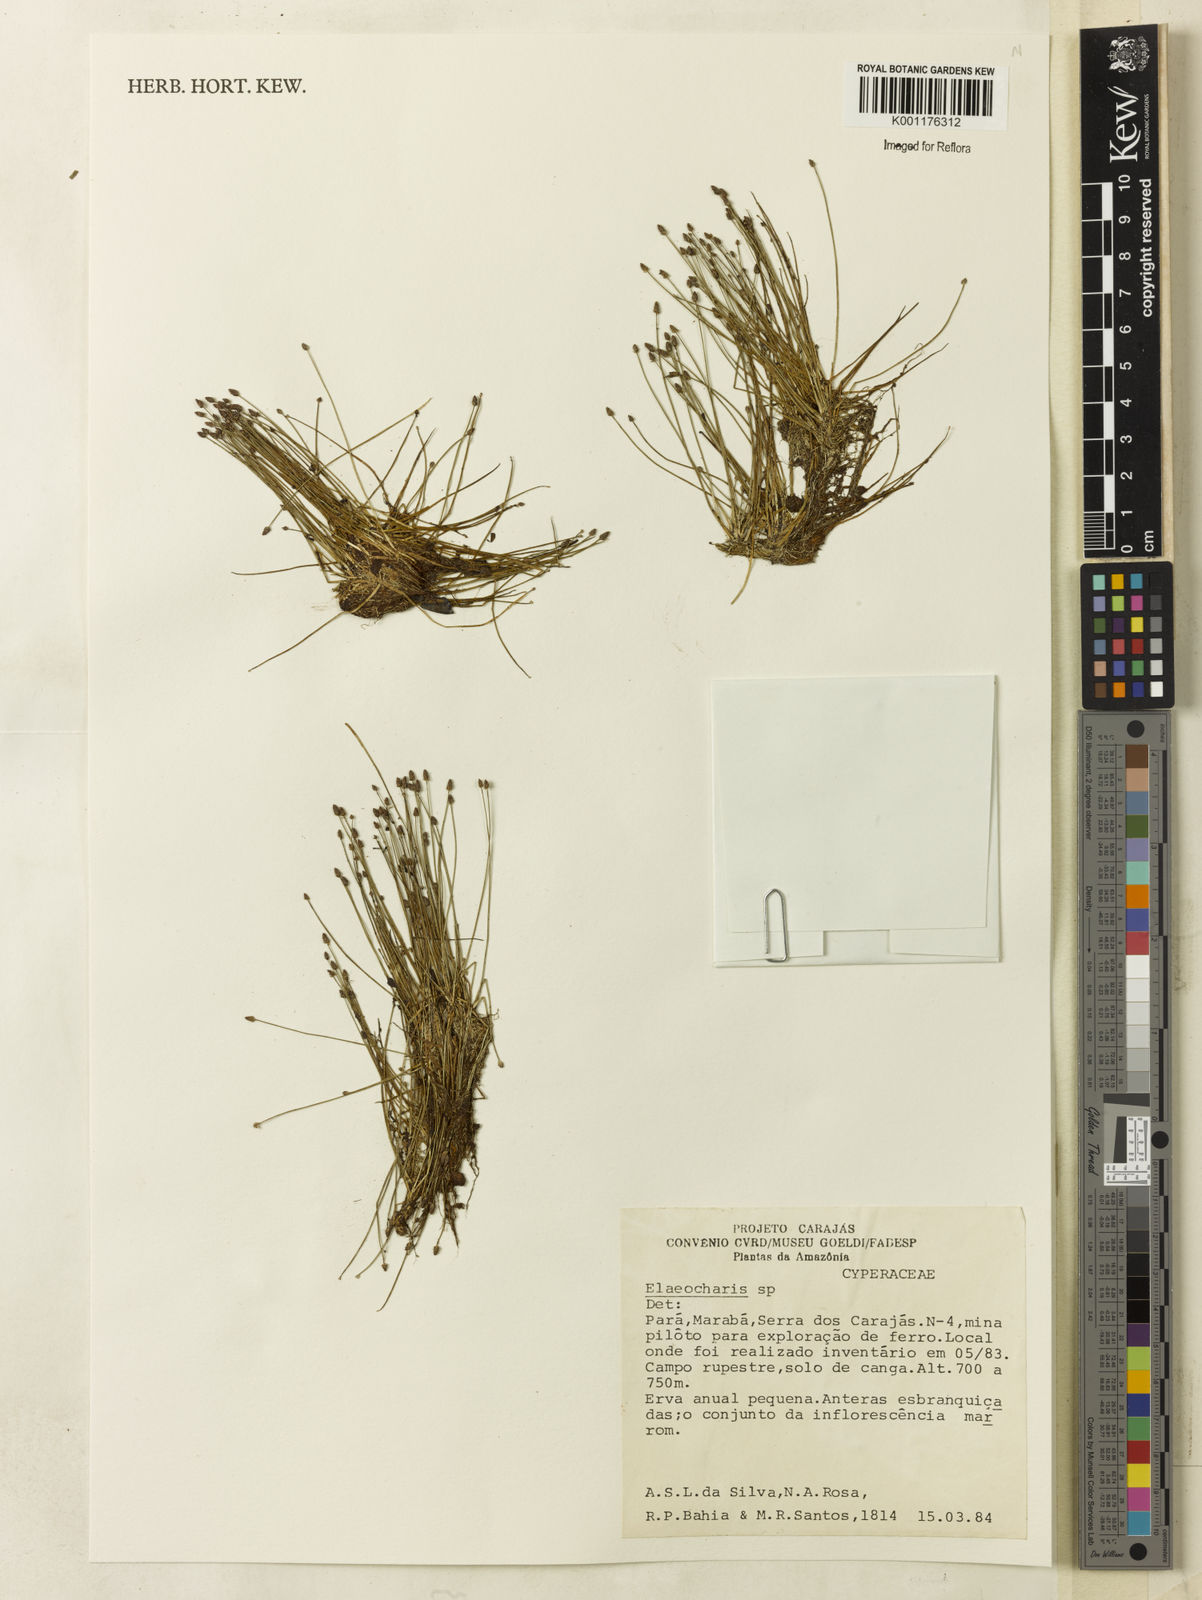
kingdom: Plantae
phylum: Tracheophyta
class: Liliopsida
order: Poales
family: Cyperaceae
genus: Eleocharis
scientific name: Eleocharis
